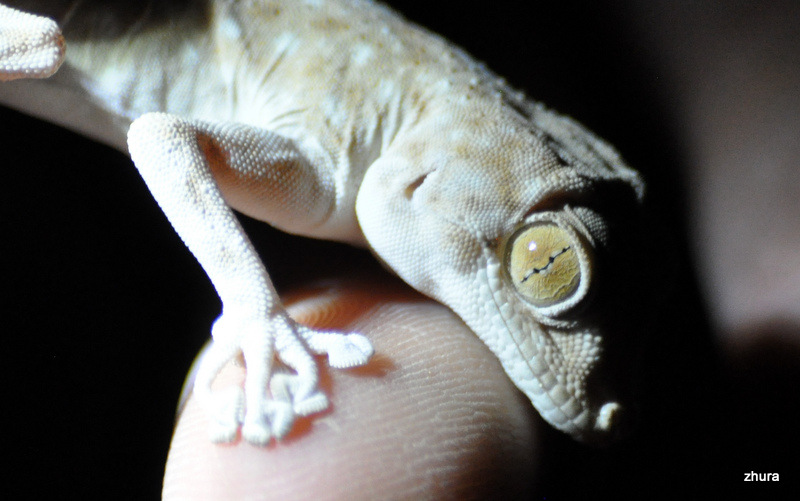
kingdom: Animalia
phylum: Chordata
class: Squamata
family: Phyllodactylidae
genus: Ptyodactylus
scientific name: Ptyodactylus guttatus
